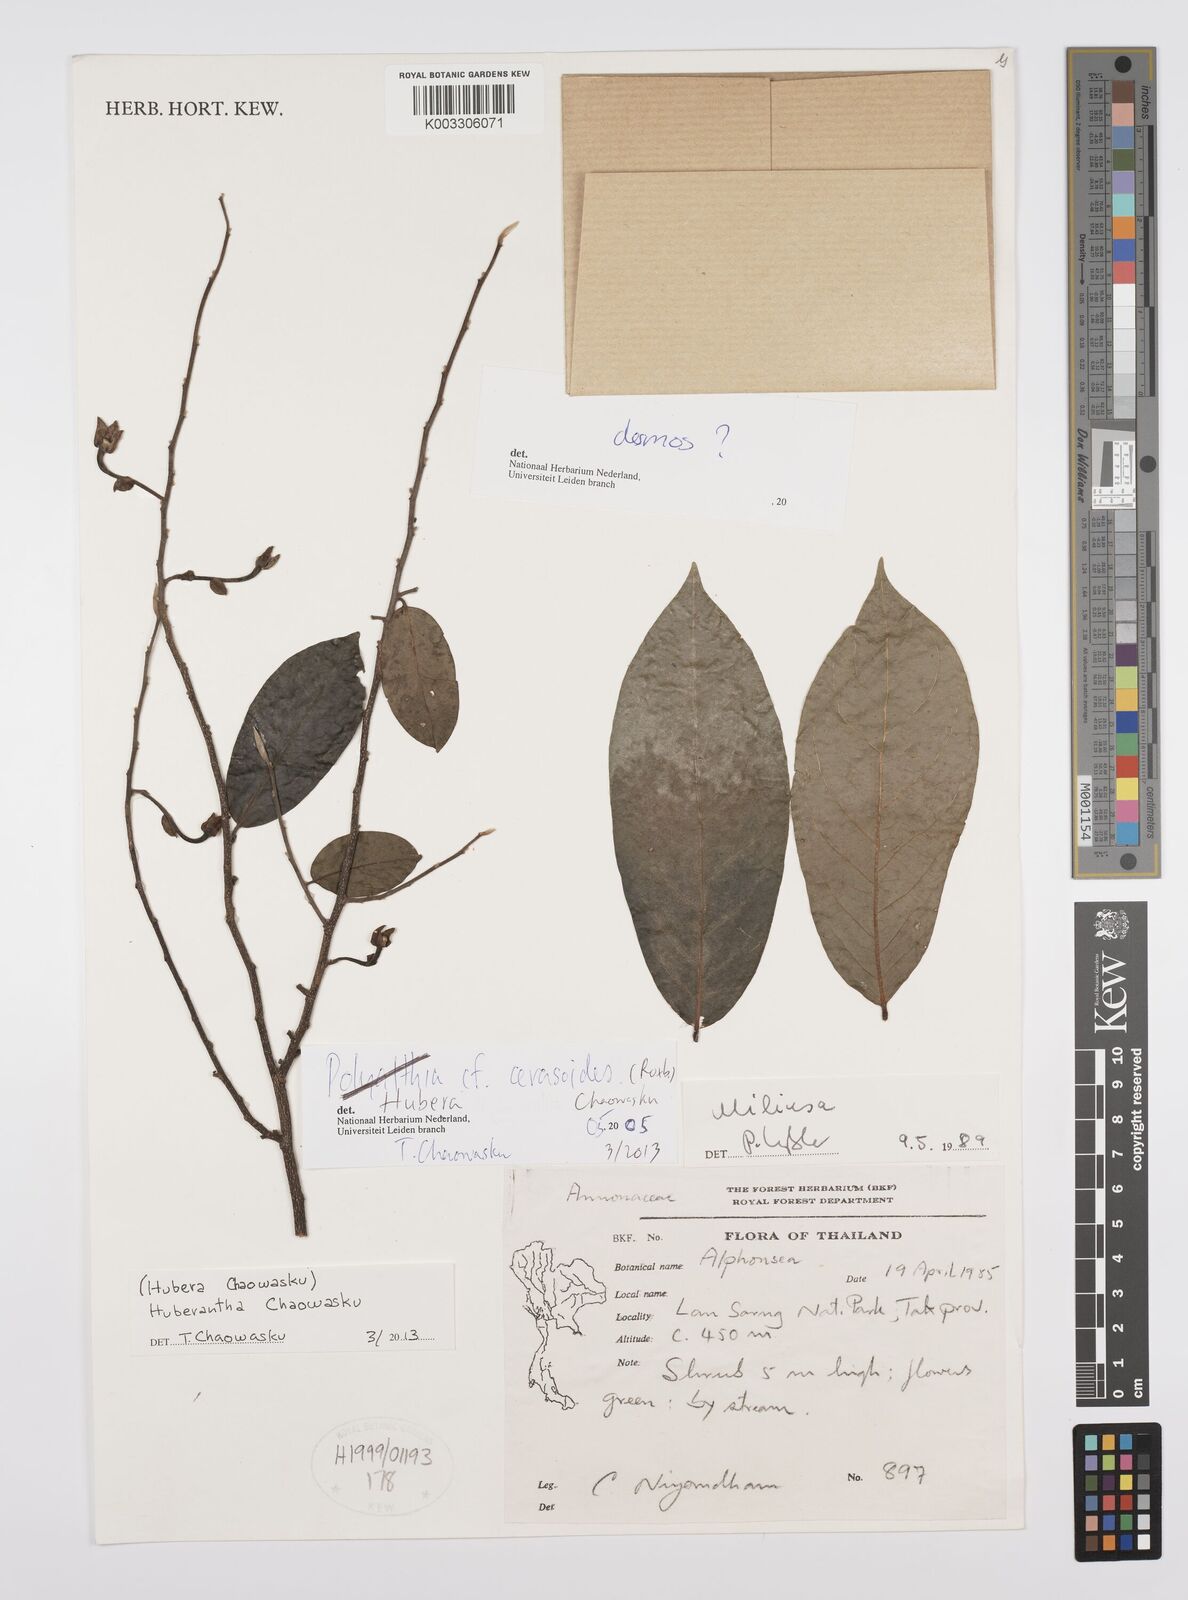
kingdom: Plantae
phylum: Tracheophyta
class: Magnoliopsida
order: Magnoliales
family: Annonaceae
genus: Hubera
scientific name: Hubera cerasoides
